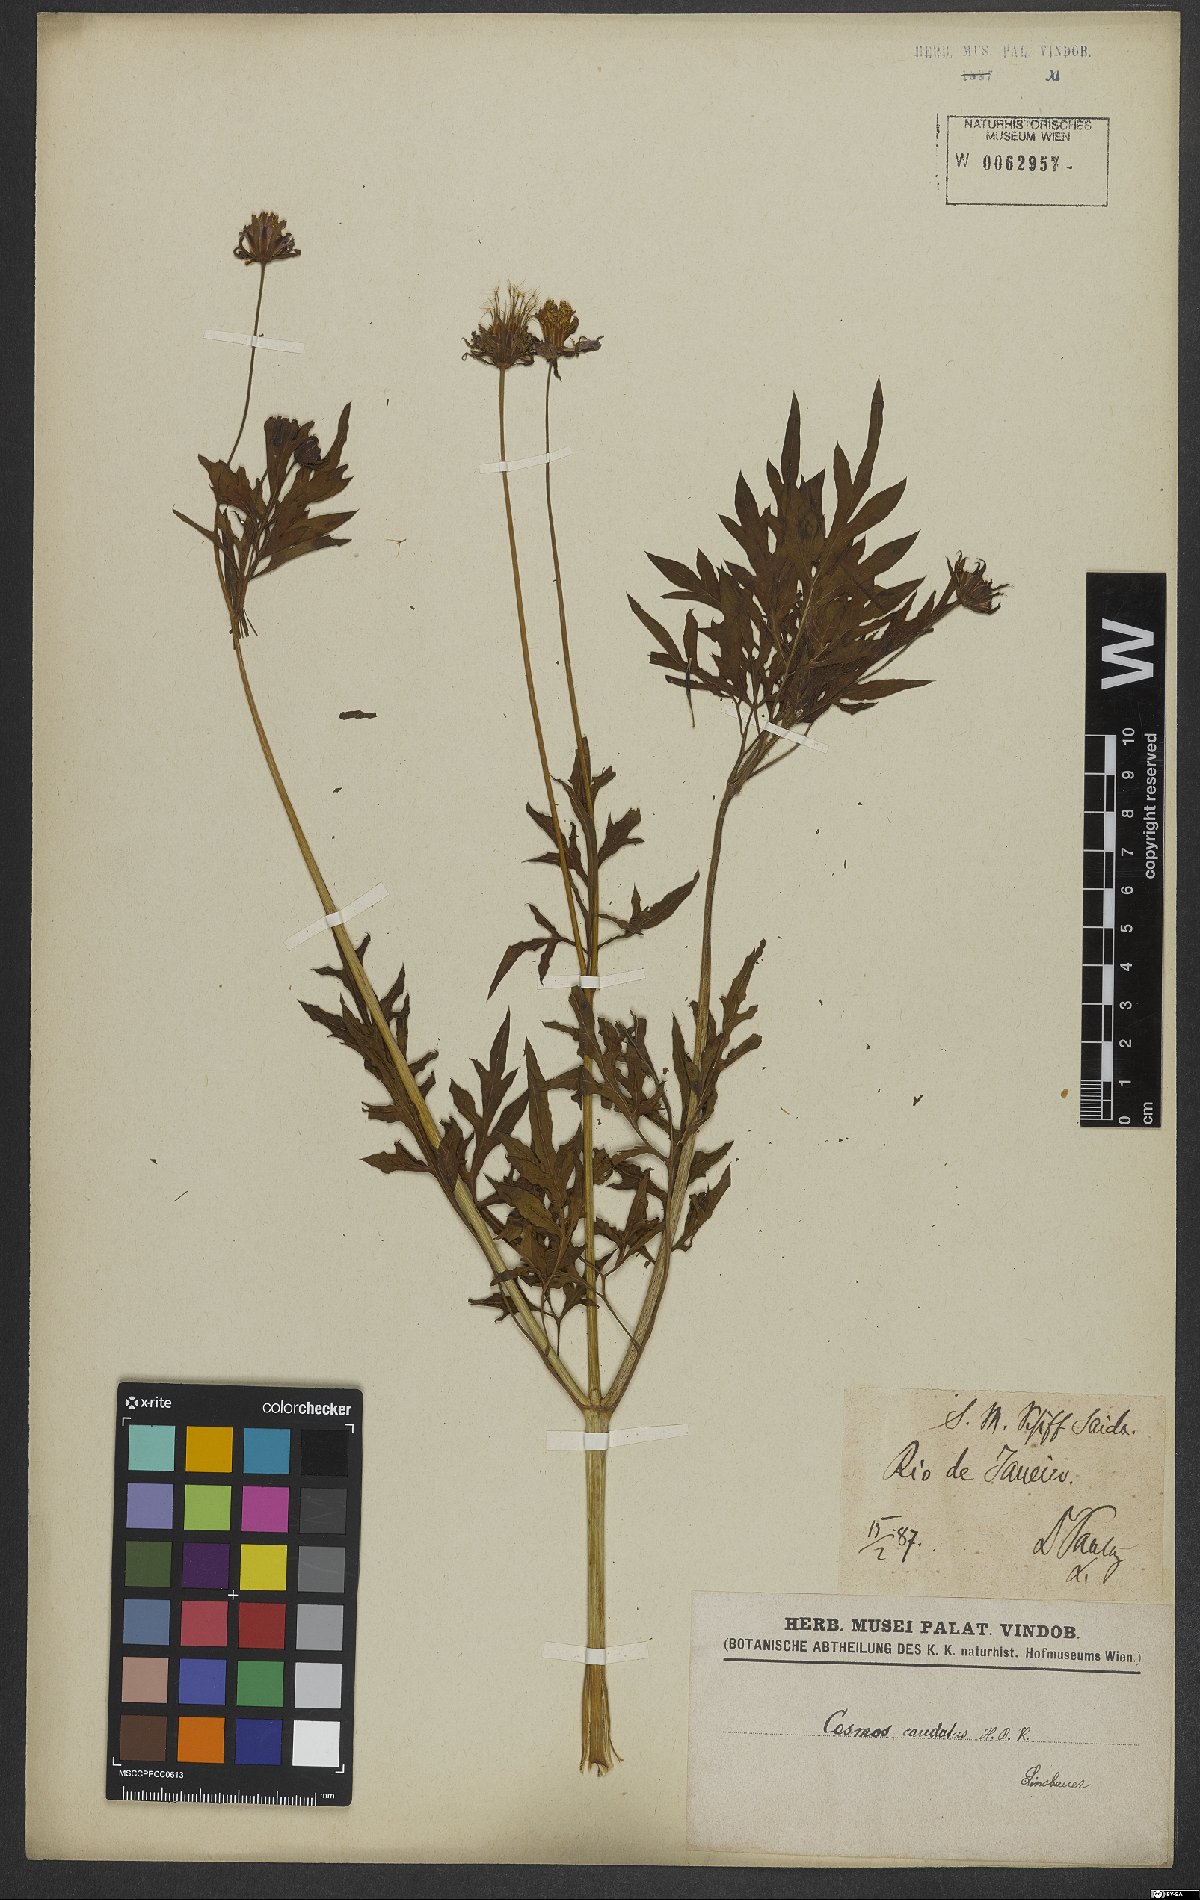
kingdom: Plantae
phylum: Tracheophyta
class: Magnoliopsida
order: Asterales
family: Asteraceae
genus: Cosmos
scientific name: Cosmos caudatus
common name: Wild cosmos
